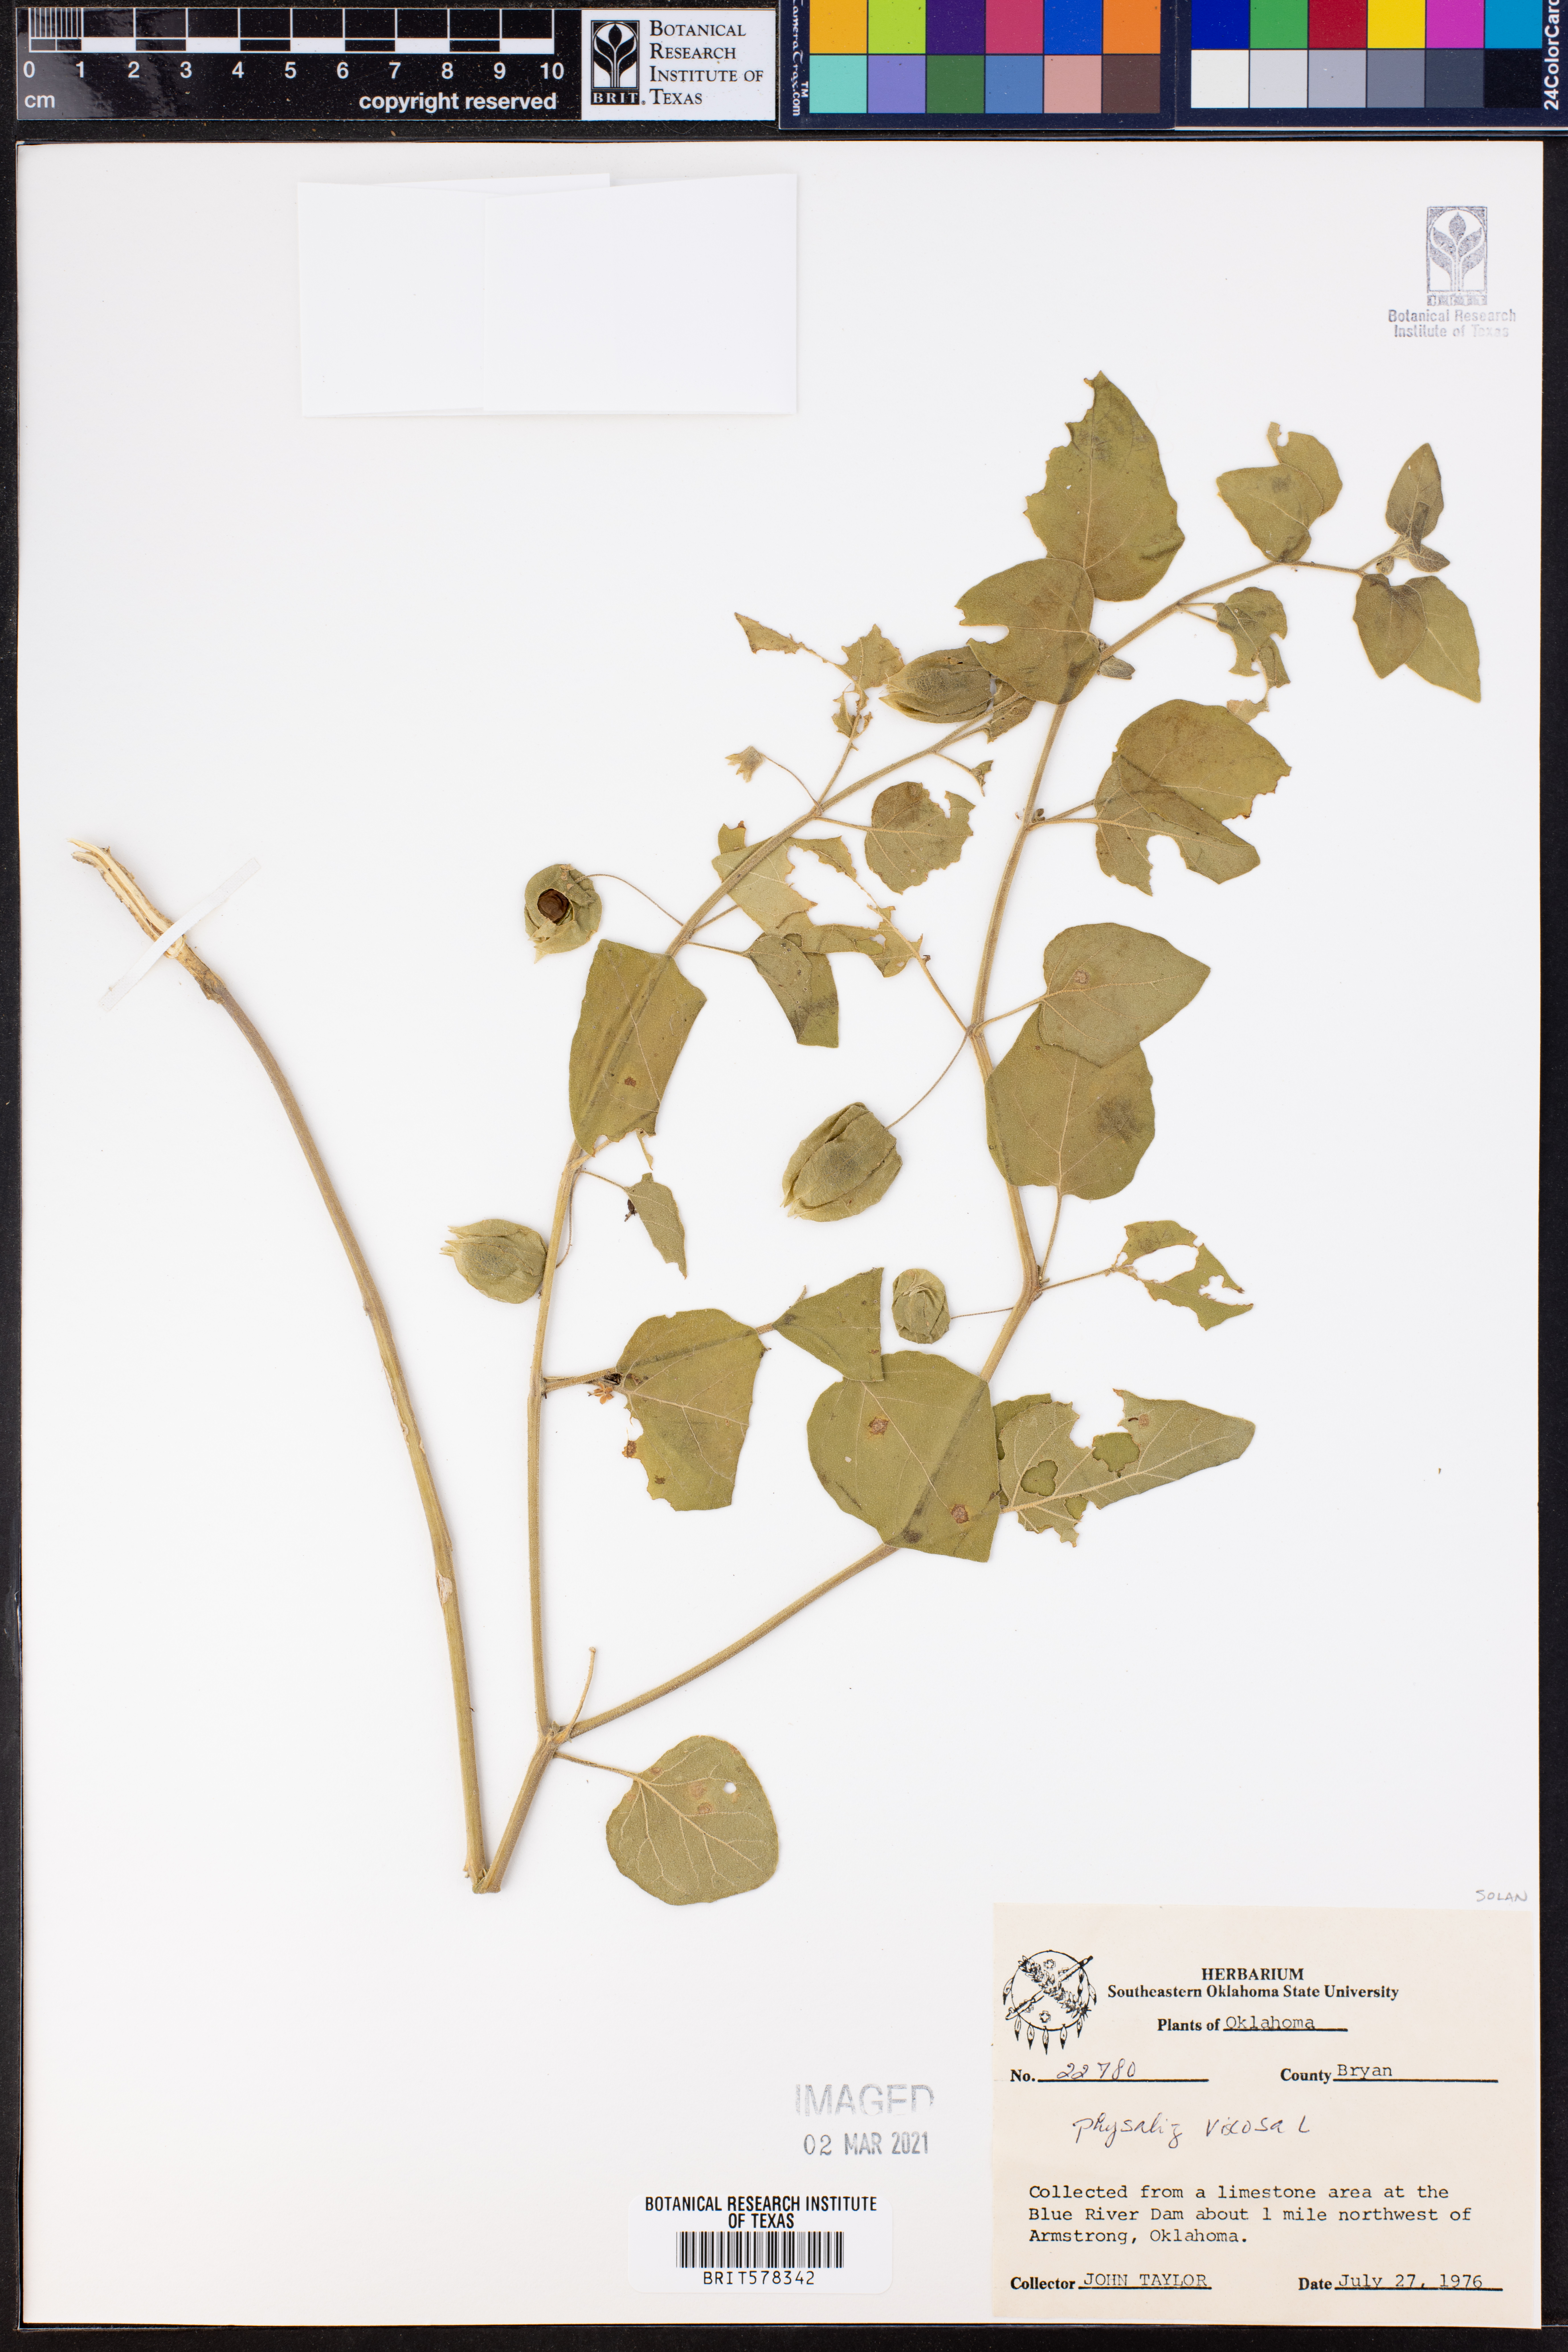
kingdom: Plantae
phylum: Tracheophyta
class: Magnoliopsida
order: Solanales
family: Solanaceae
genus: Physalis
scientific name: Physalis viscosa
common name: Stellate ground-cherry
